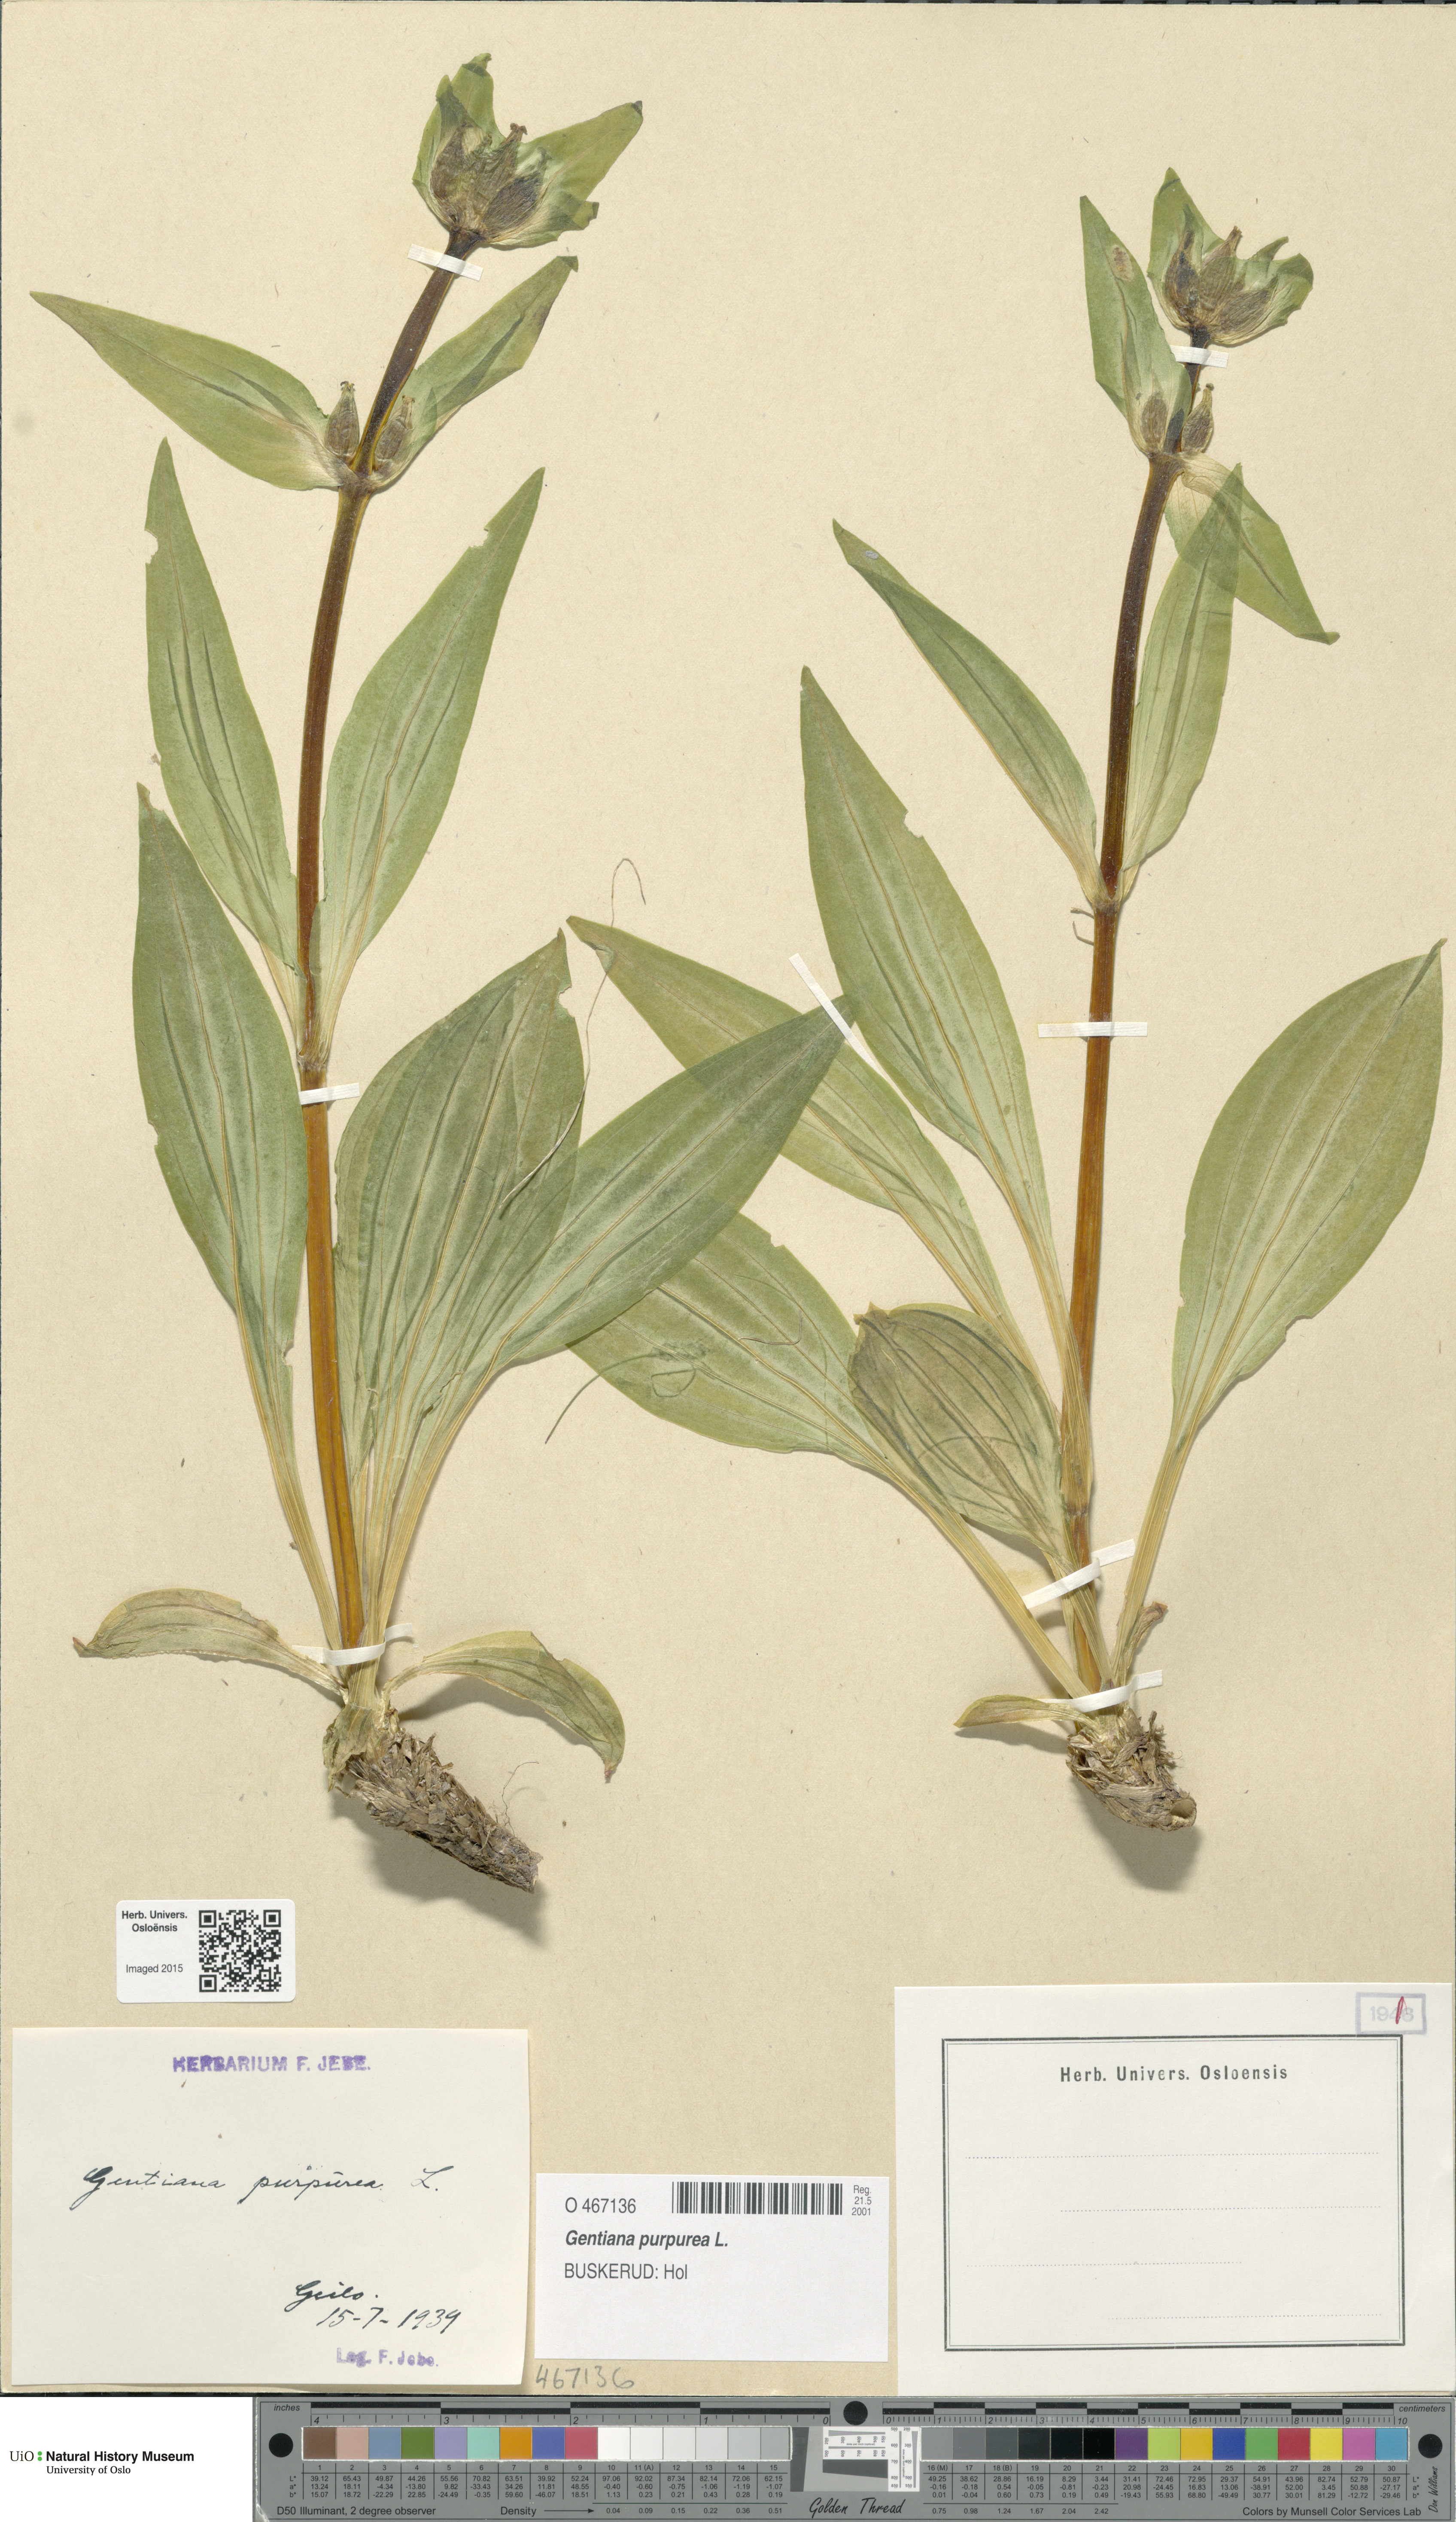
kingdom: Plantae
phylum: Tracheophyta
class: Magnoliopsida
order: Gentianales
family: Gentianaceae
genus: Gentiana
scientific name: Gentiana purpurea
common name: Purple gentian
